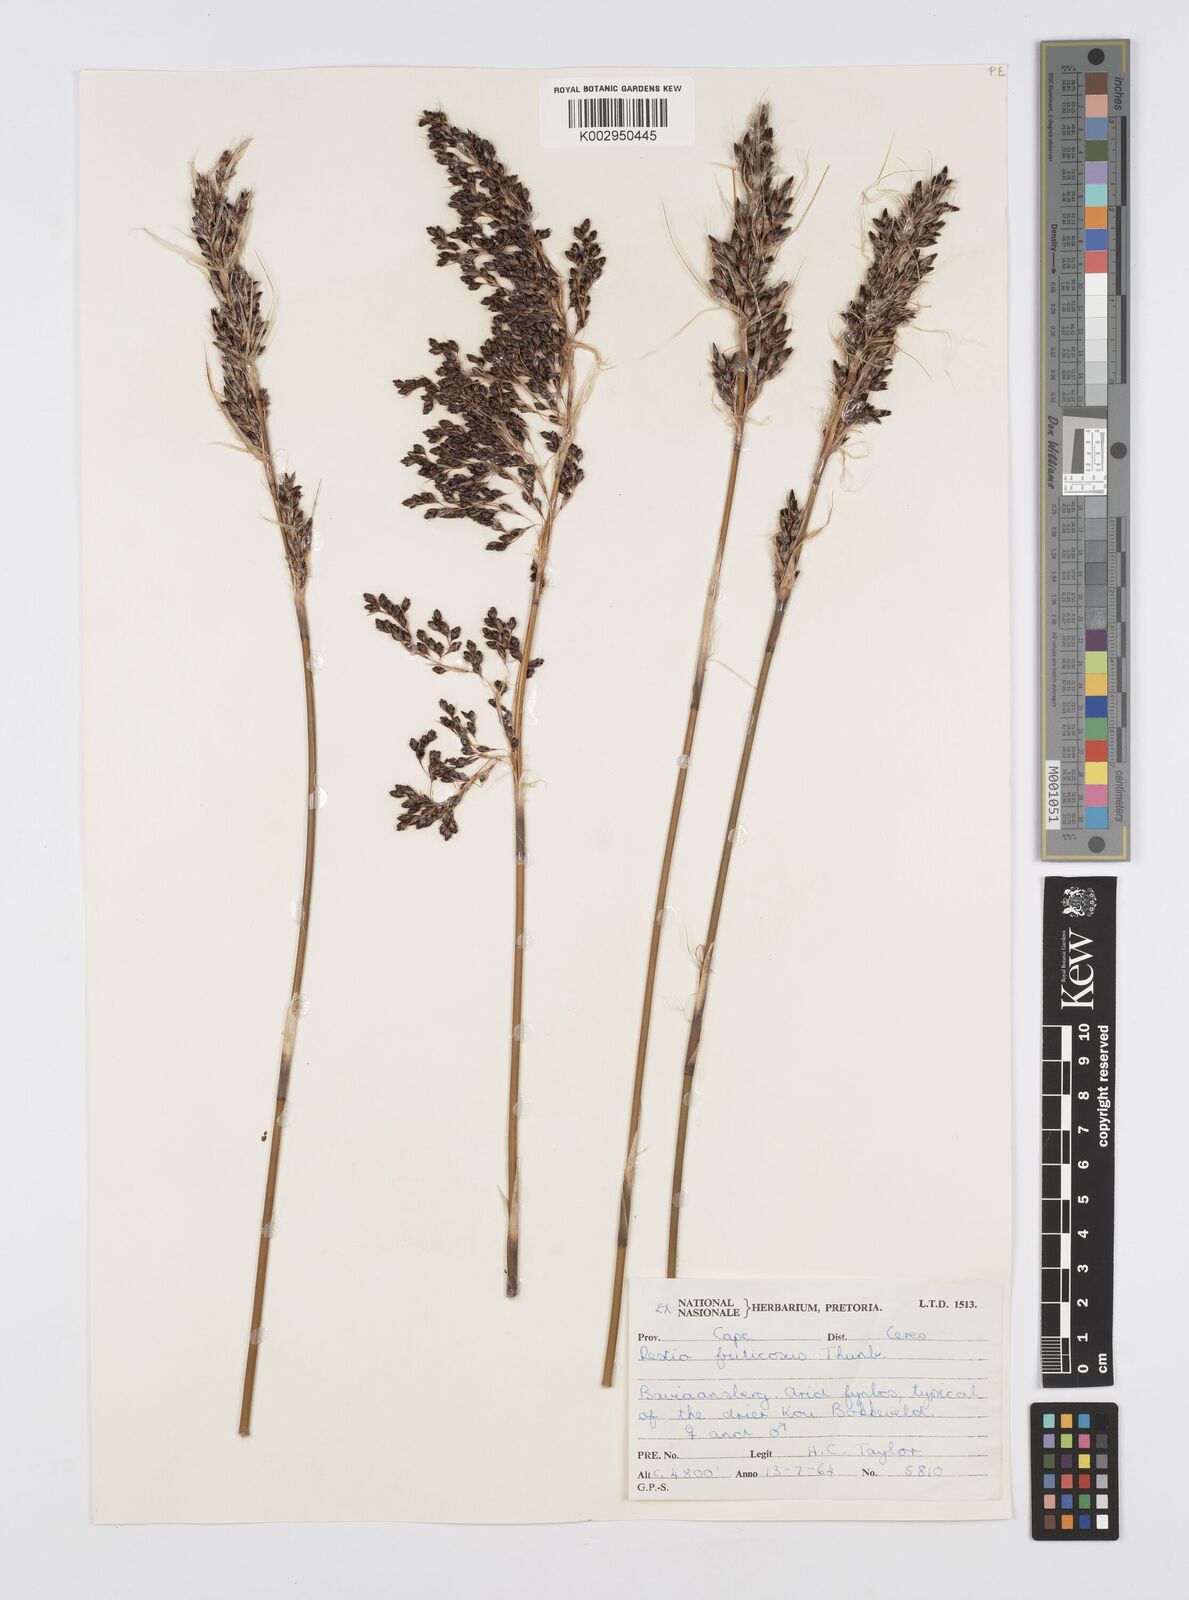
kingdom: Plantae
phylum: Tracheophyta
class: Liliopsida
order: Poales
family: Restionaceae
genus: Rhodocoma
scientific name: Rhodocoma fruticosa
